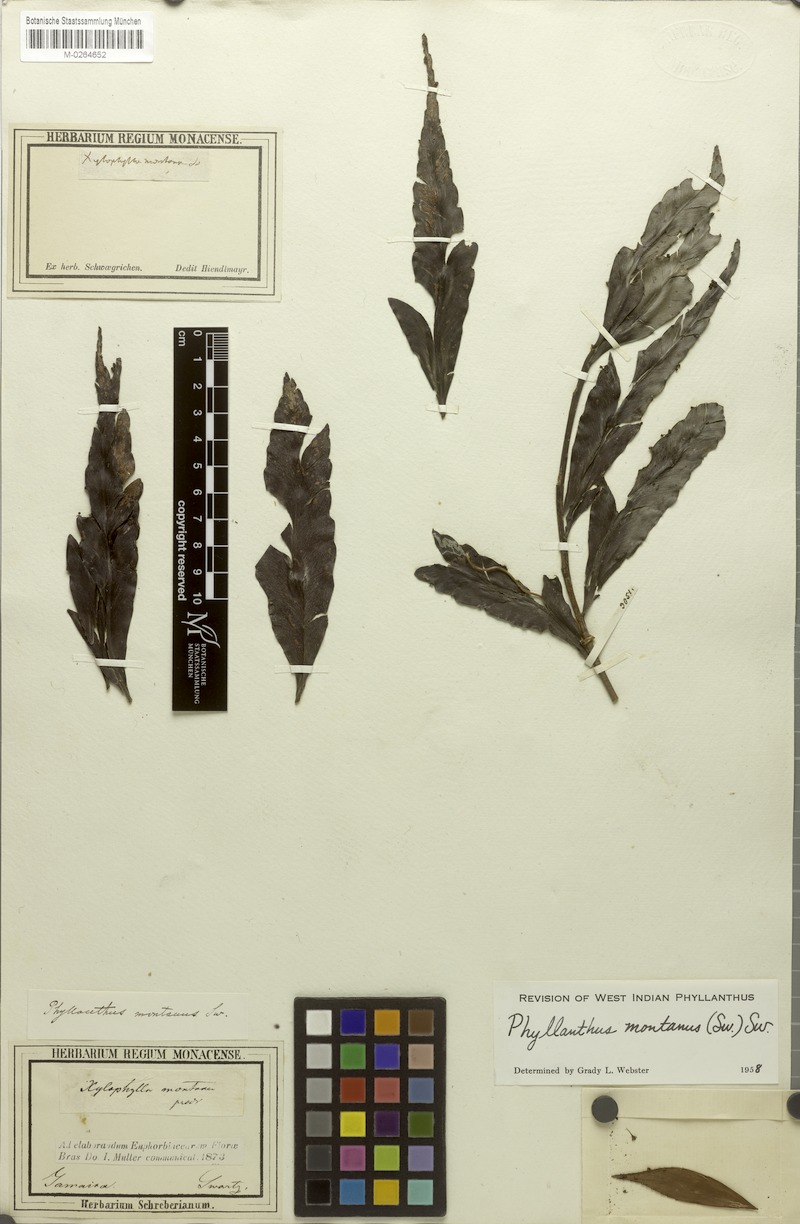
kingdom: Plantae
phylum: Tracheophyta
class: Magnoliopsida
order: Malpighiales
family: Phyllanthaceae
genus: Phyllanthus
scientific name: Phyllanthus montanus
